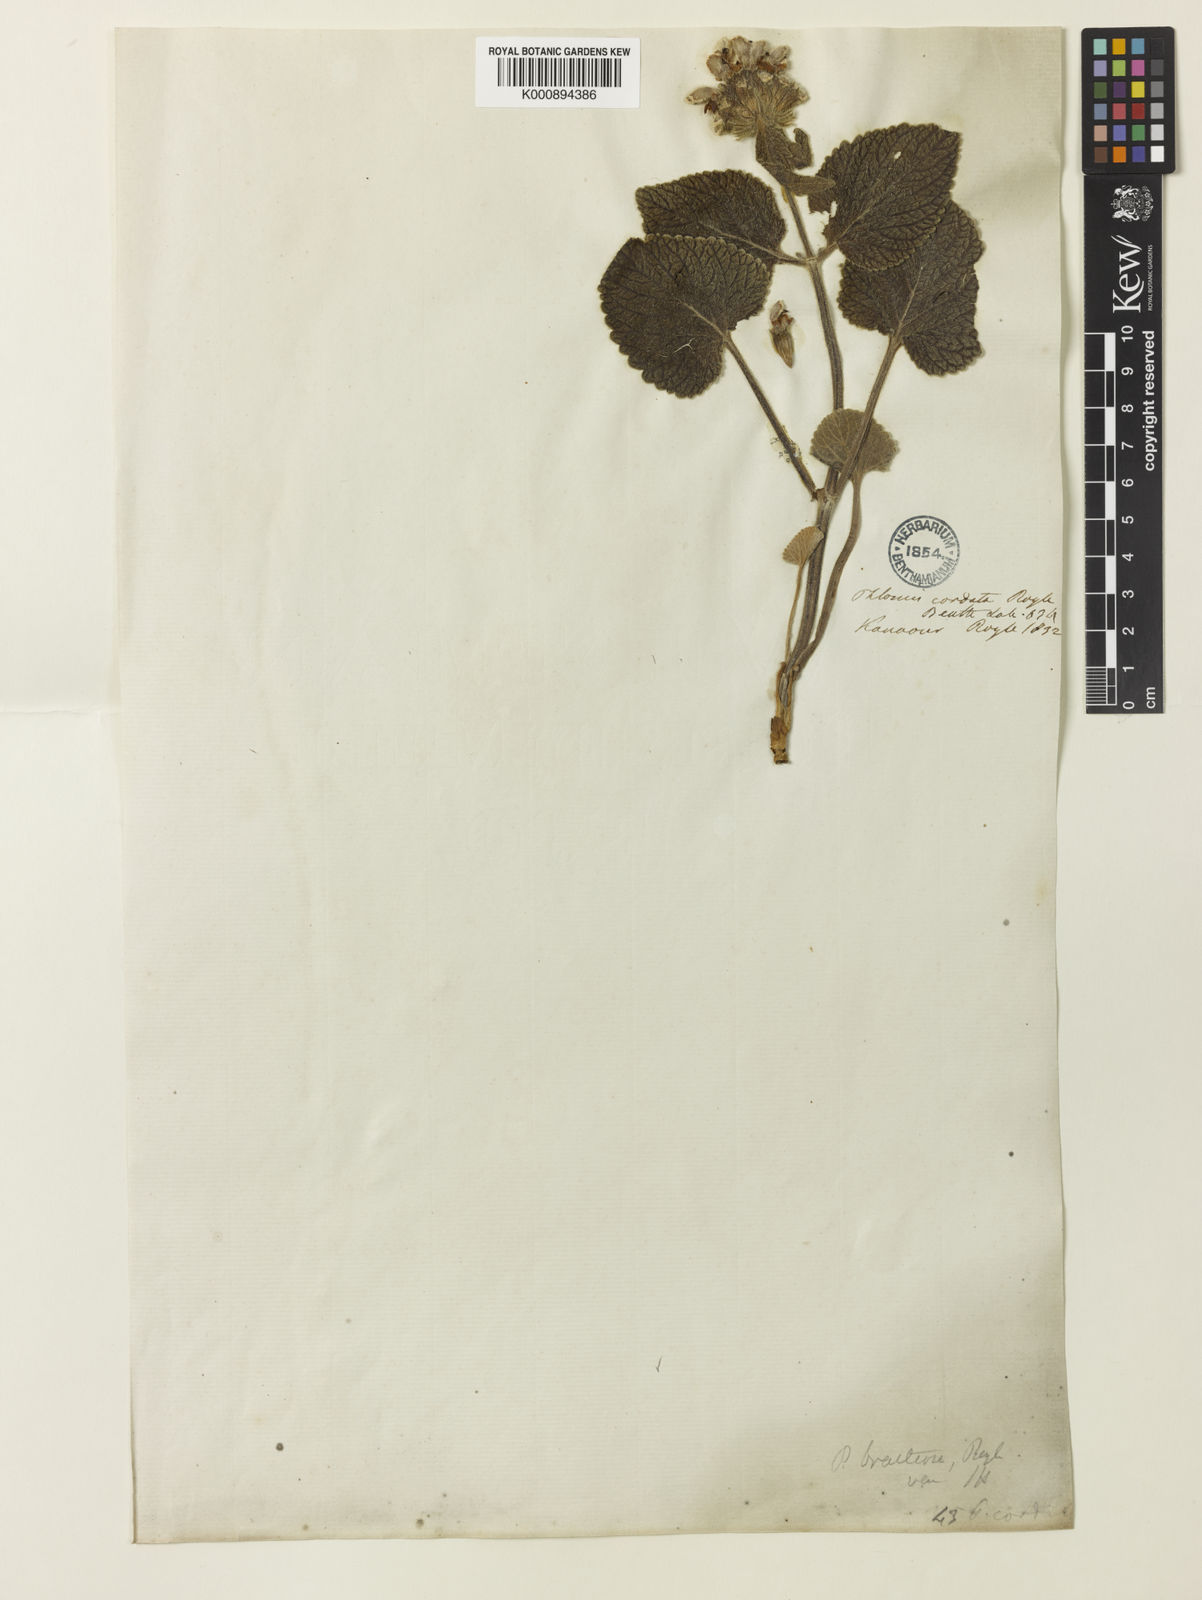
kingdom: Plantae
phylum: Tracheophyta
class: Magnoliopsida
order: Lamiales
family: Lamiaceae
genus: Phlomoides
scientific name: Phlomoides bracteosa
